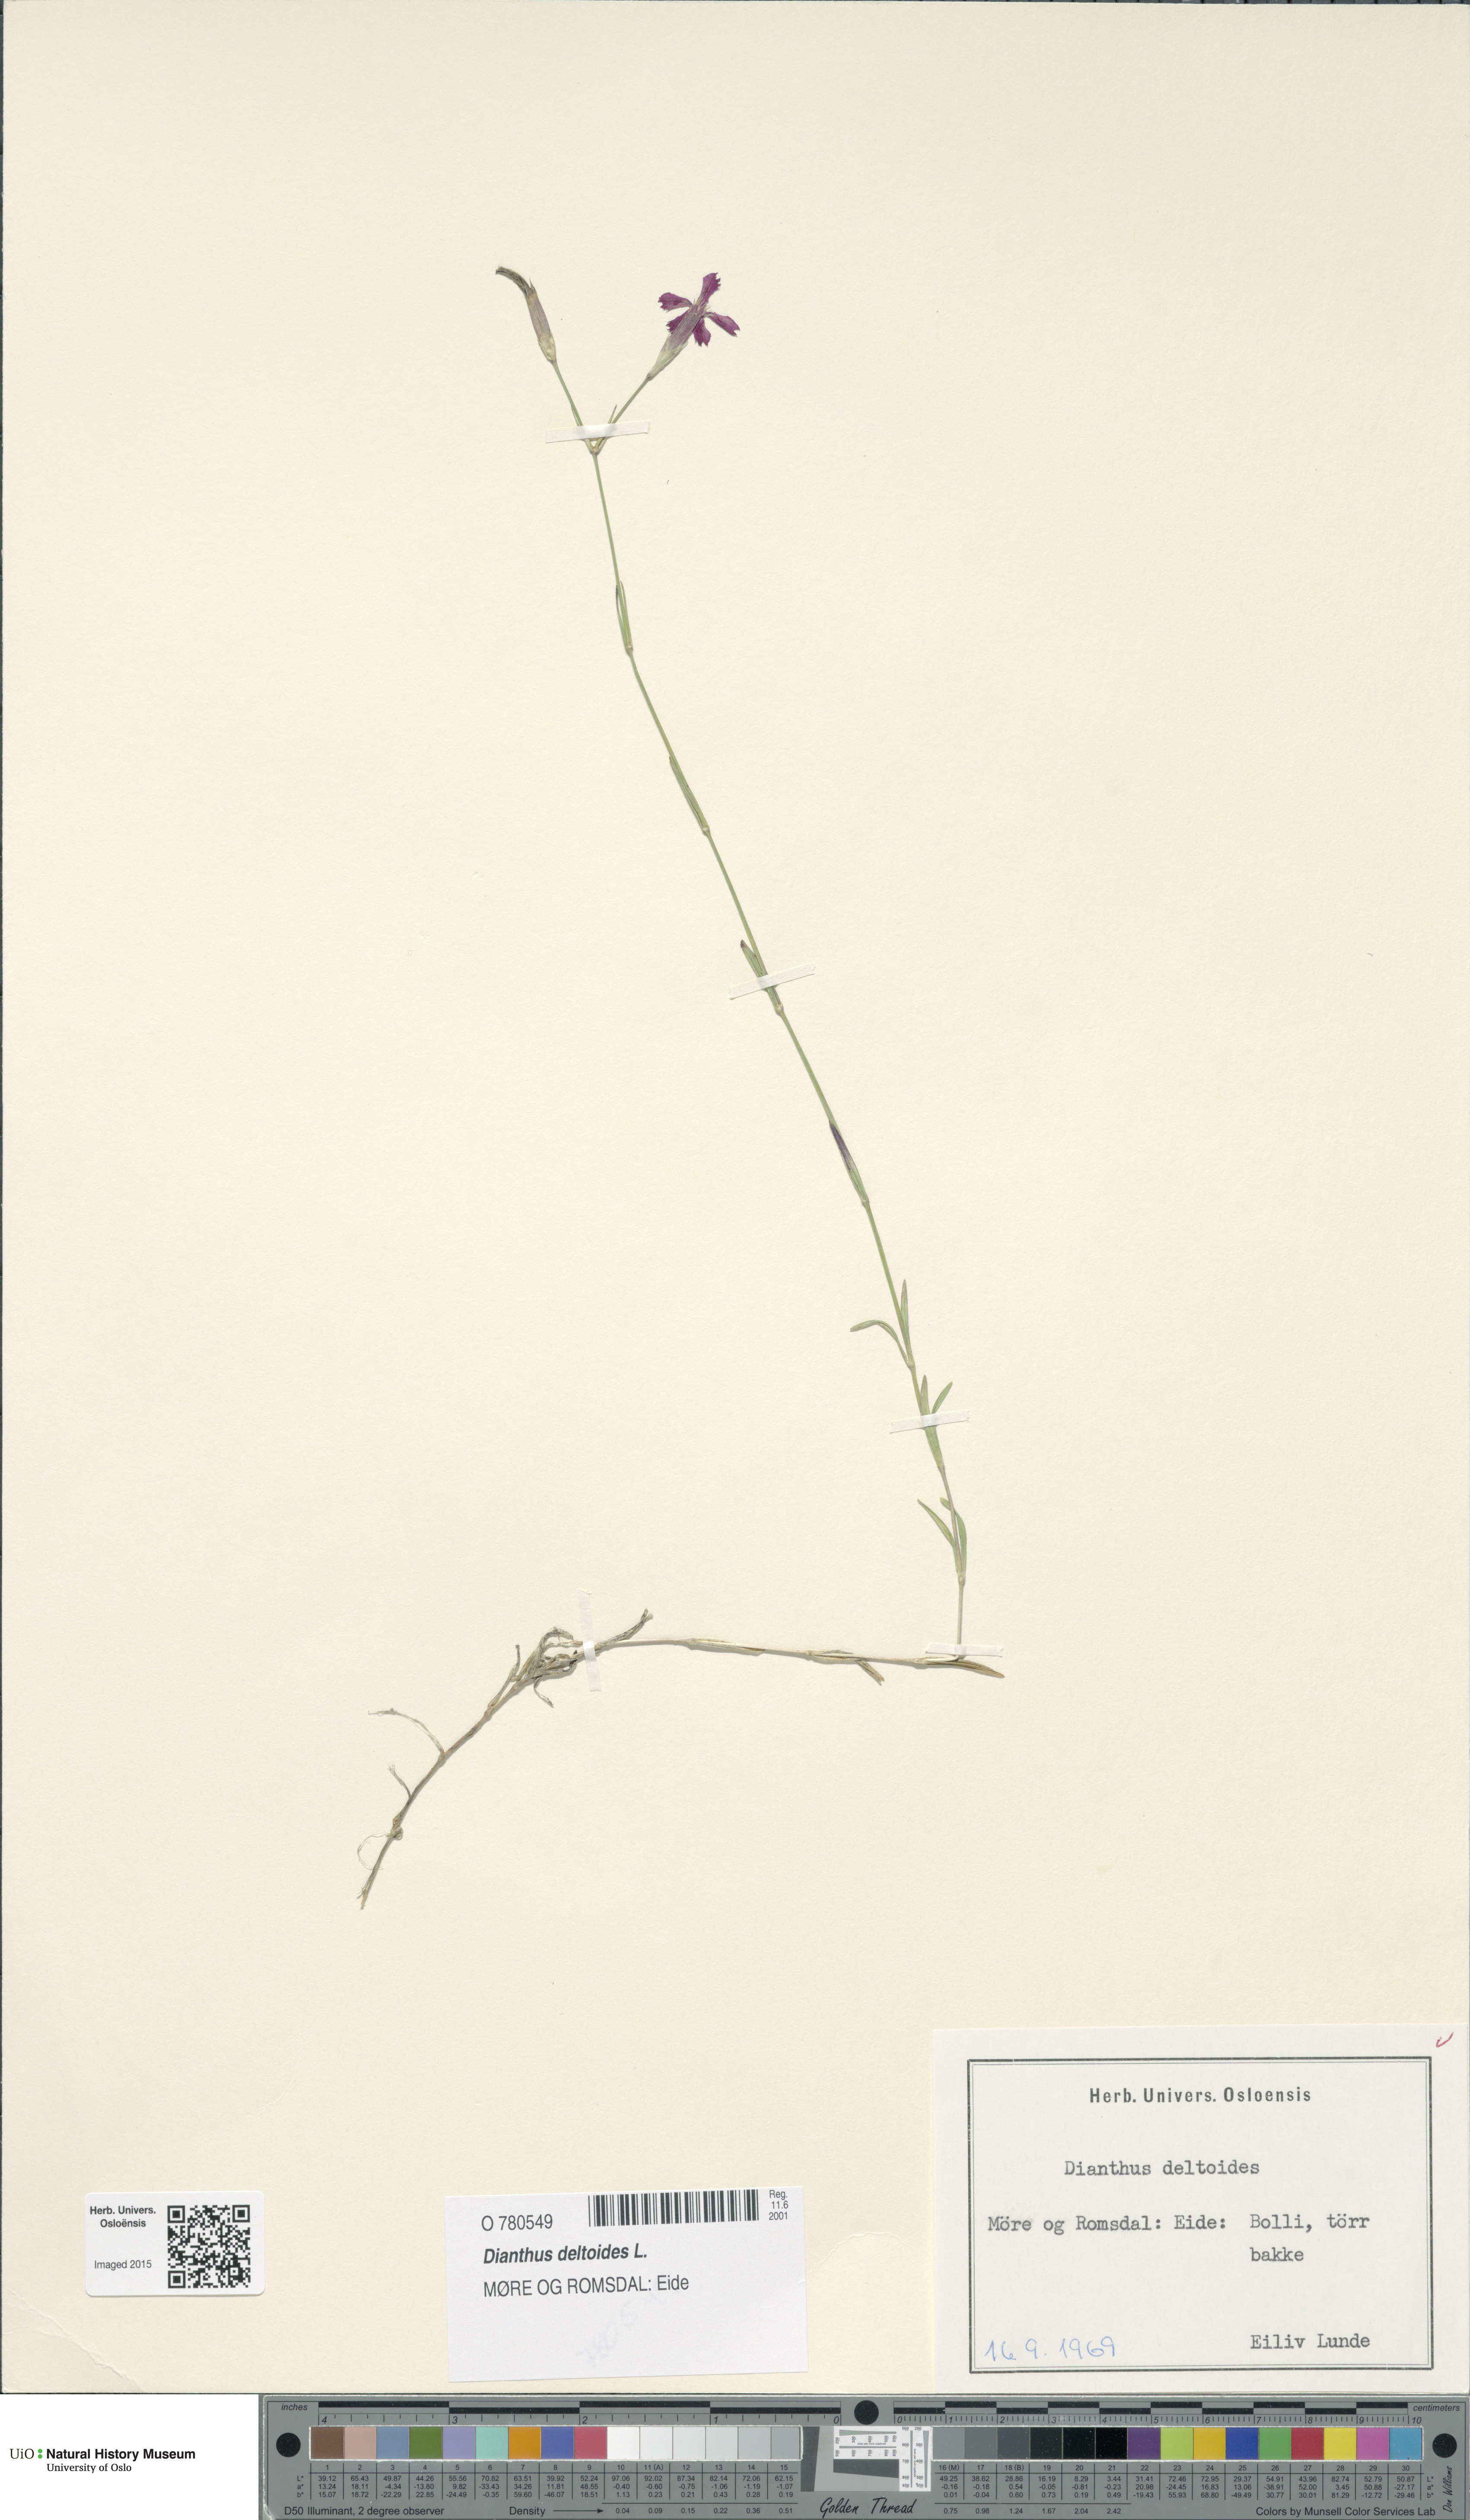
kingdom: Plantae
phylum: Tracheophyta
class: Magnoliopsida
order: Caryophyllales
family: Caryophyllaceae
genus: Dianthus
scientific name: Dianthus deltoides
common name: Maiden pink
